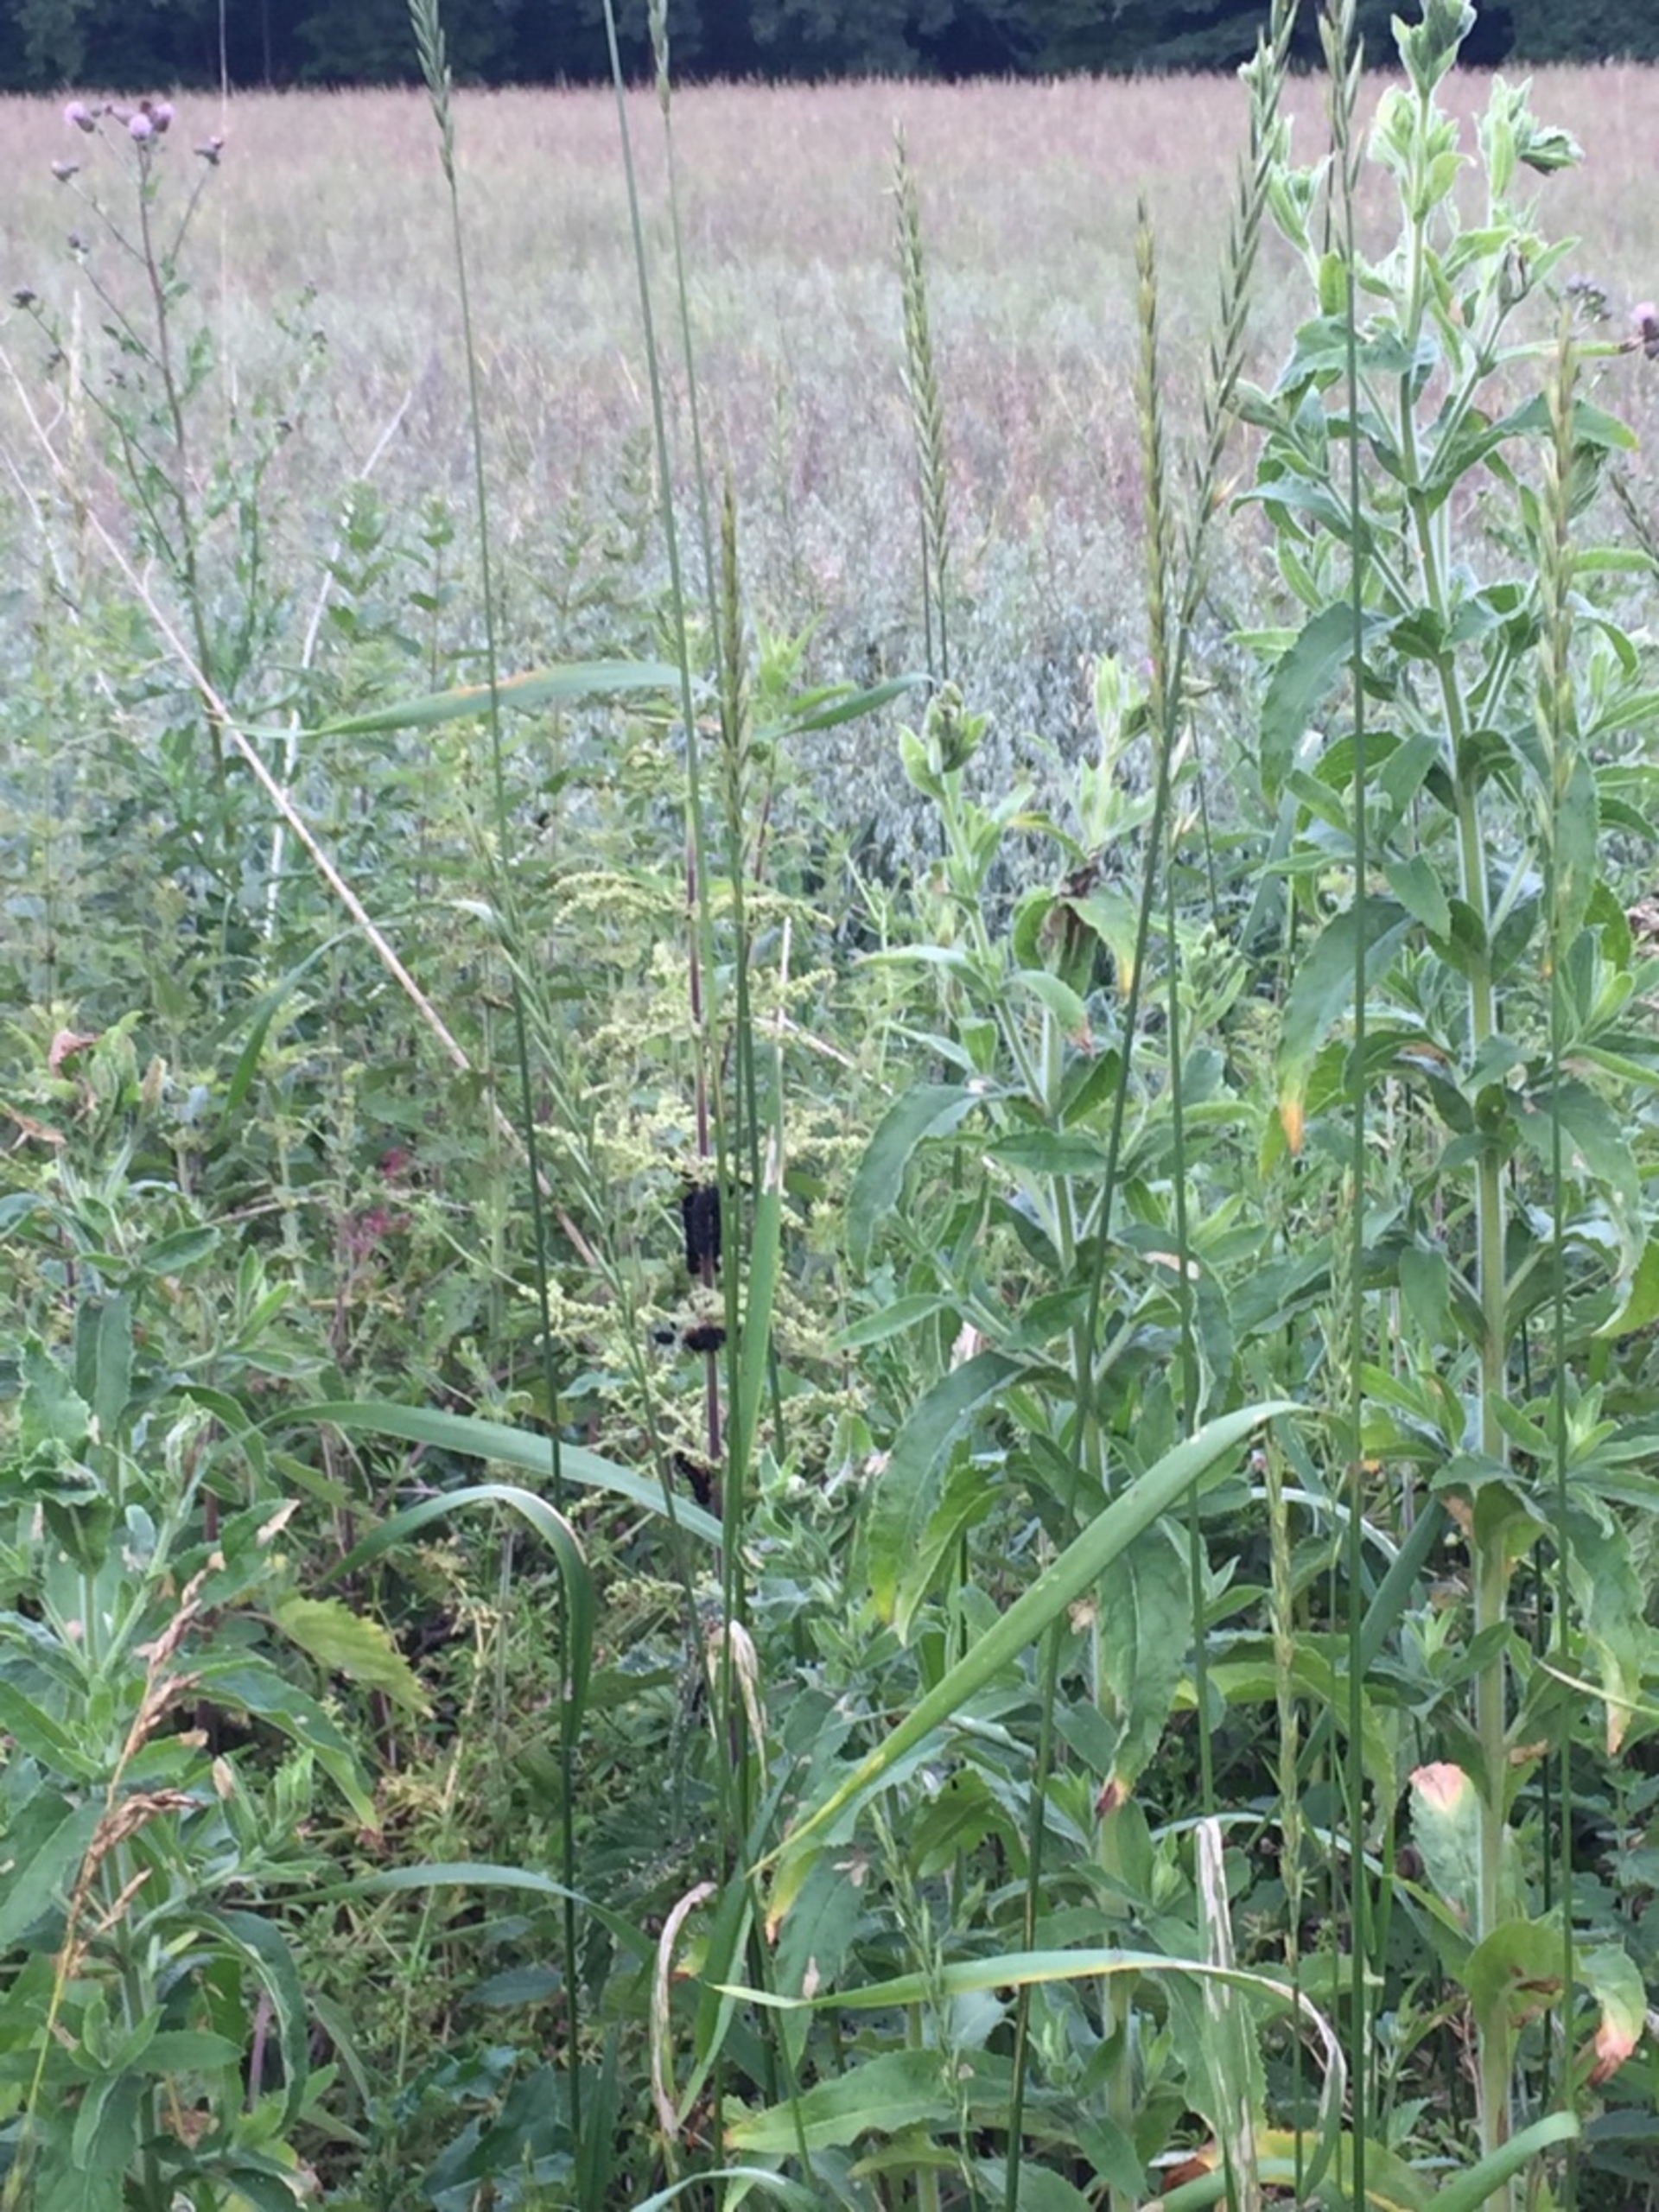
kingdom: Animalia
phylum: Arthropoda
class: Insecta
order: Lepidoptera
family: Nymphalidae
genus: Aglais
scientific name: Aglais io
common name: Dagpåfugleøje
